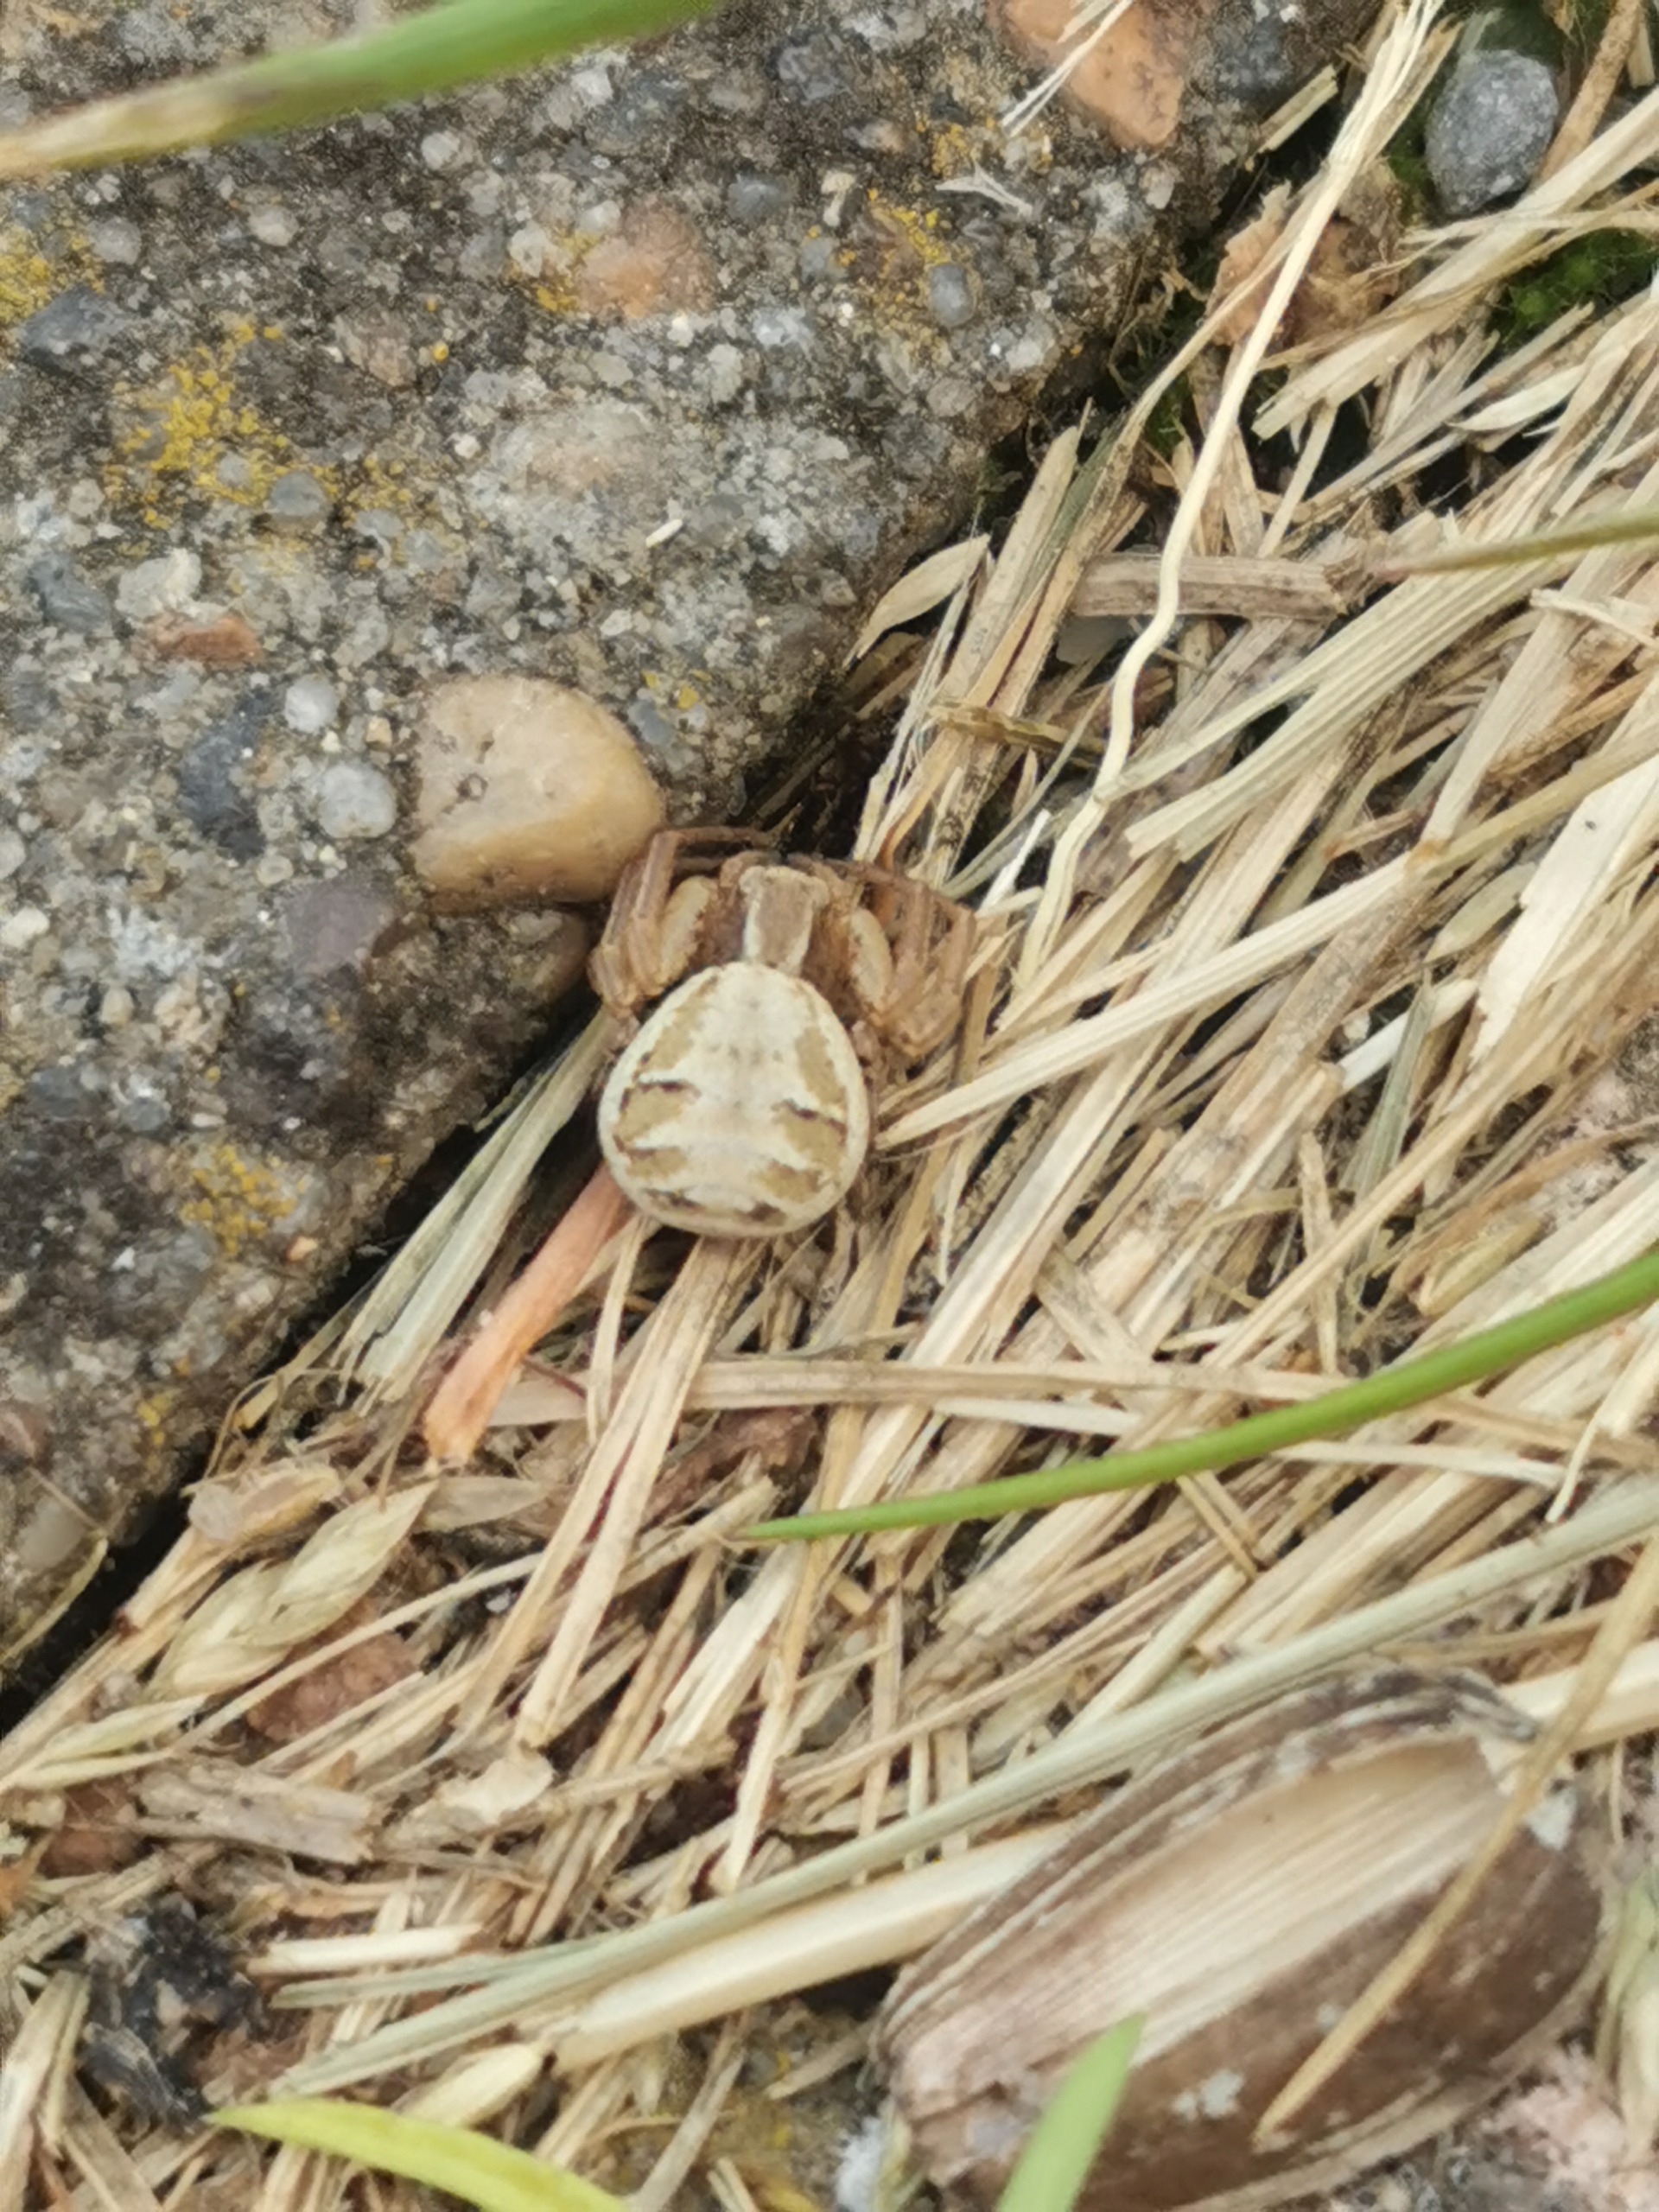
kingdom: Animalia
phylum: Arthropoda
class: Arachnida
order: Araneae
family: Thomisidae
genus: Xysticus
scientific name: Xysticus cristatus
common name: Almindelig krabbeedderkop
